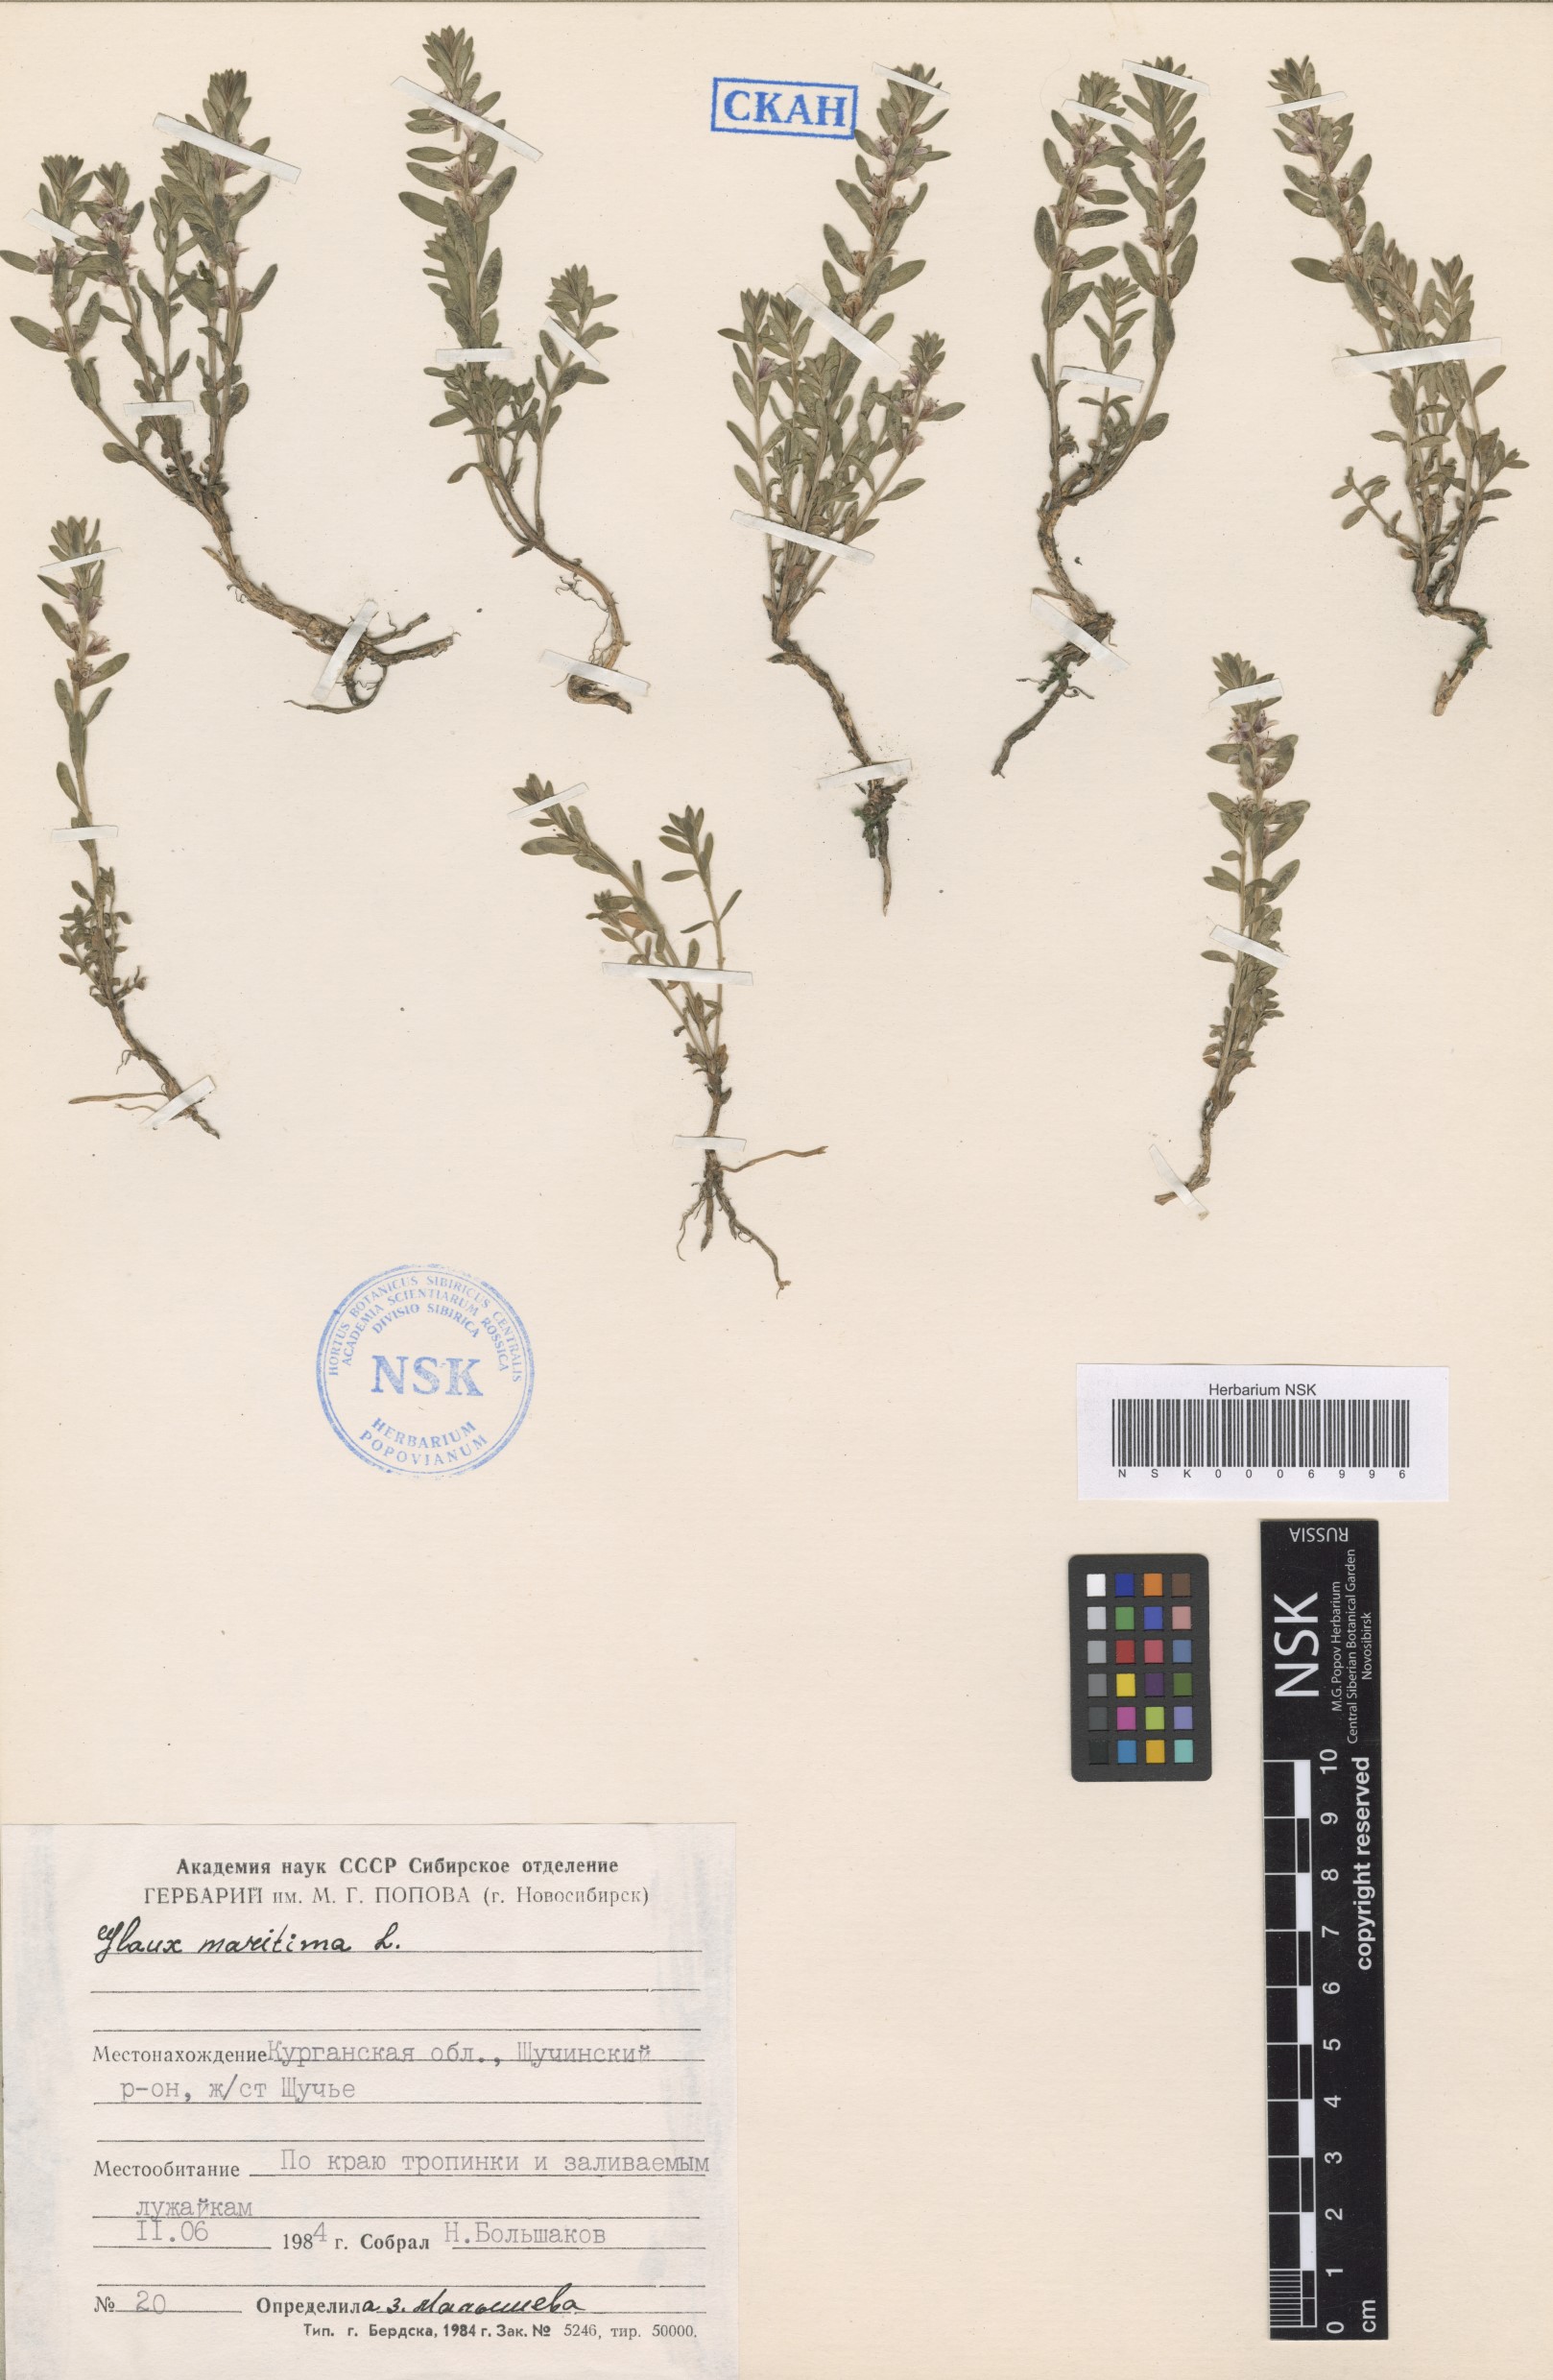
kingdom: Plantae
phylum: Tracheophyta
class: Magnoliopsida
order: Ericales
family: Primulaceae
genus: Lysimachia
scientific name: Lysimachia maritima
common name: Sea milkwort
